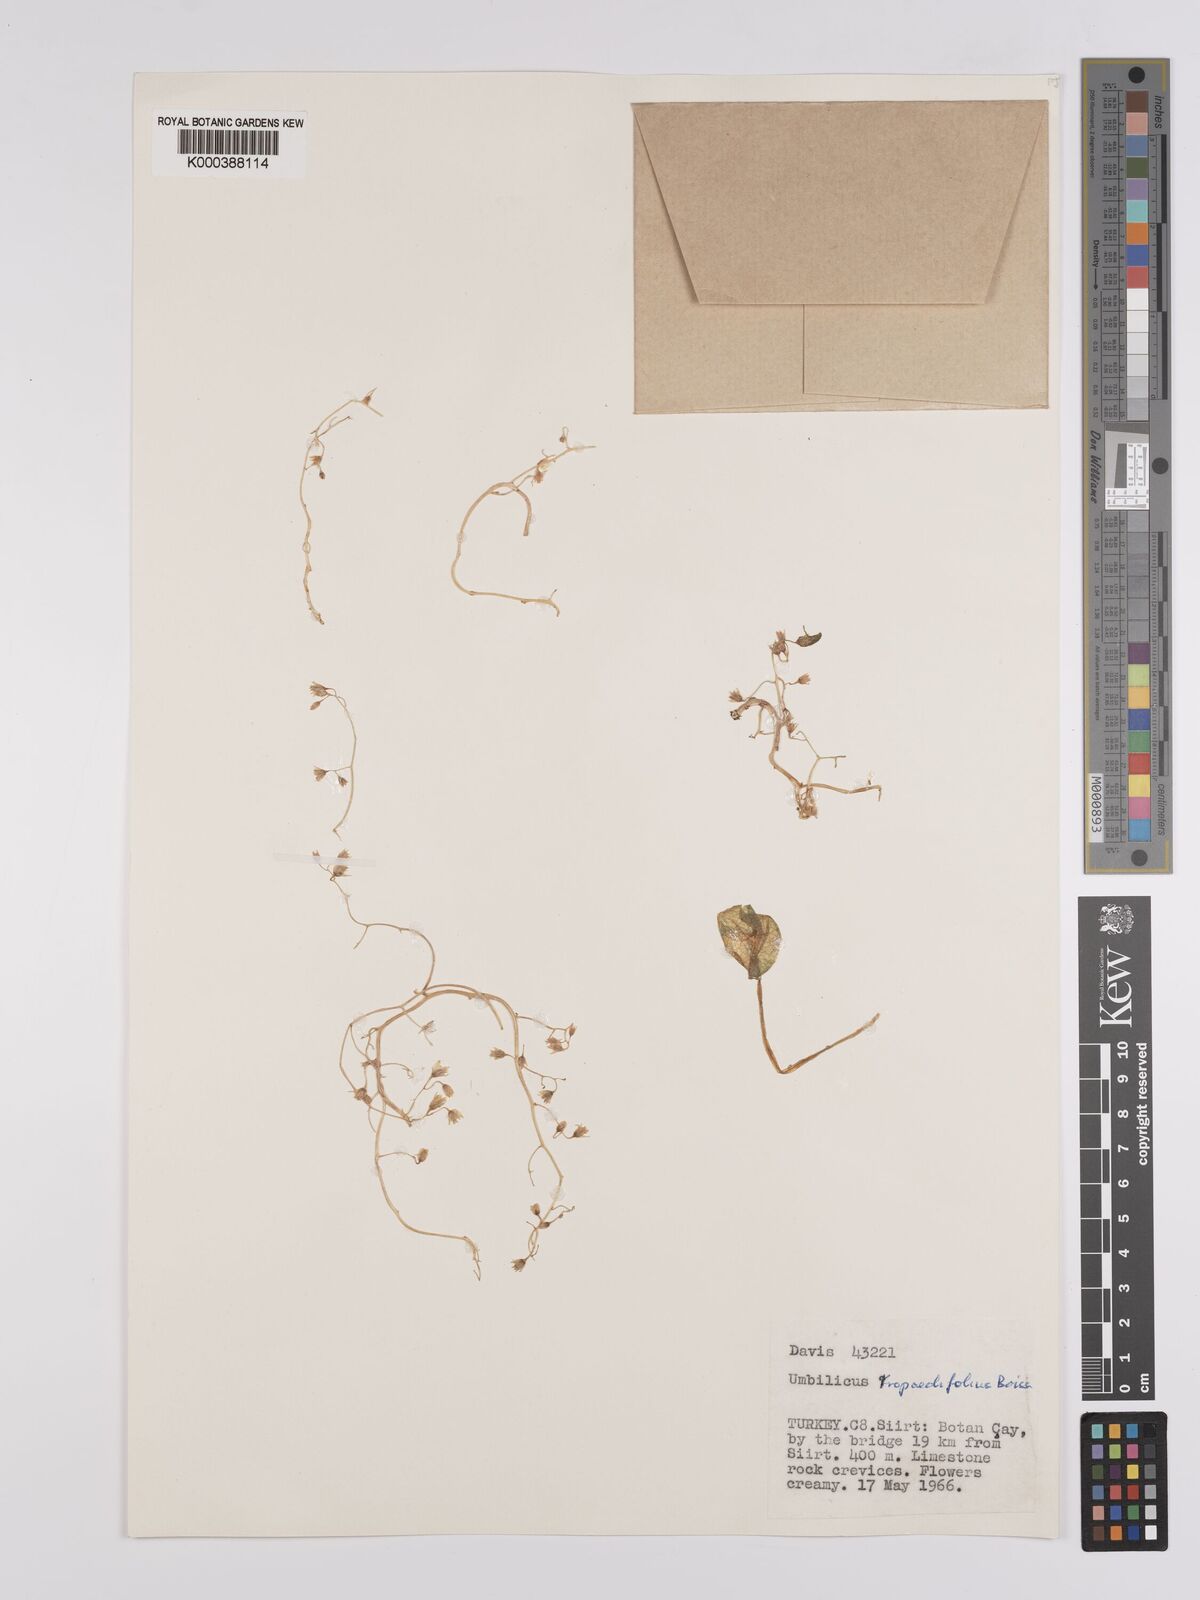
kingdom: Plantae
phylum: Tracheophyta
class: Magnoliopsida
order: Saxifragales
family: Crassulaceae
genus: Umbilicus
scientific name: Umbilicus tropaeolifolius
